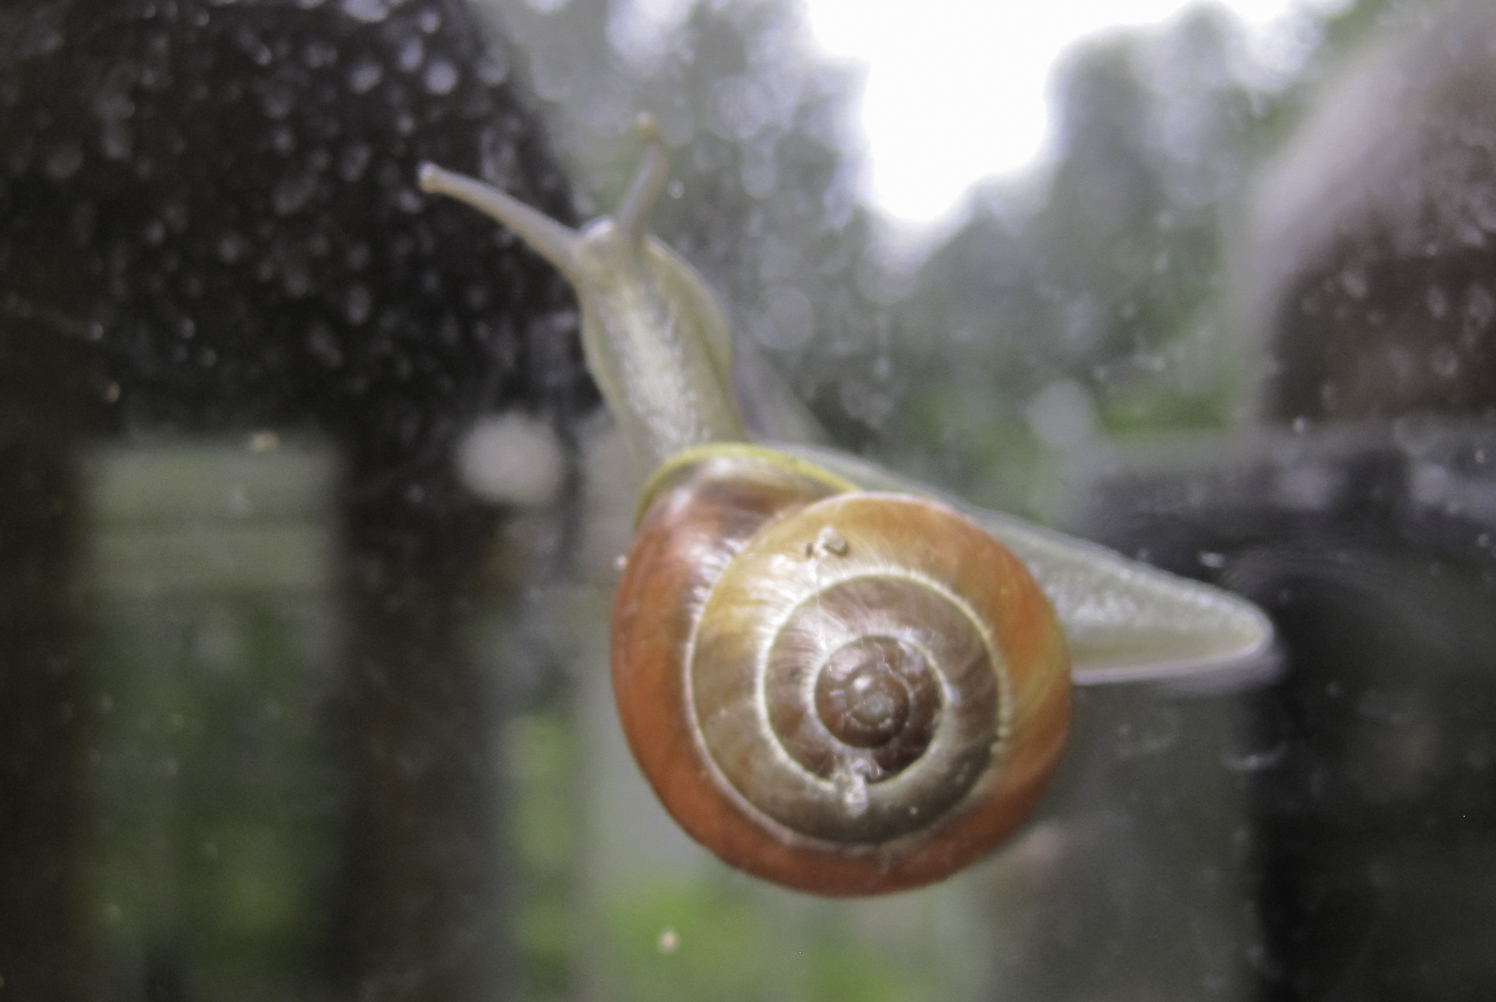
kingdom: Animalia
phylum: Mollusca
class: Gastropoda
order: Stylommatophora
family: Hygromiidae
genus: Euomphalia
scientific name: Euomphalia strigella
